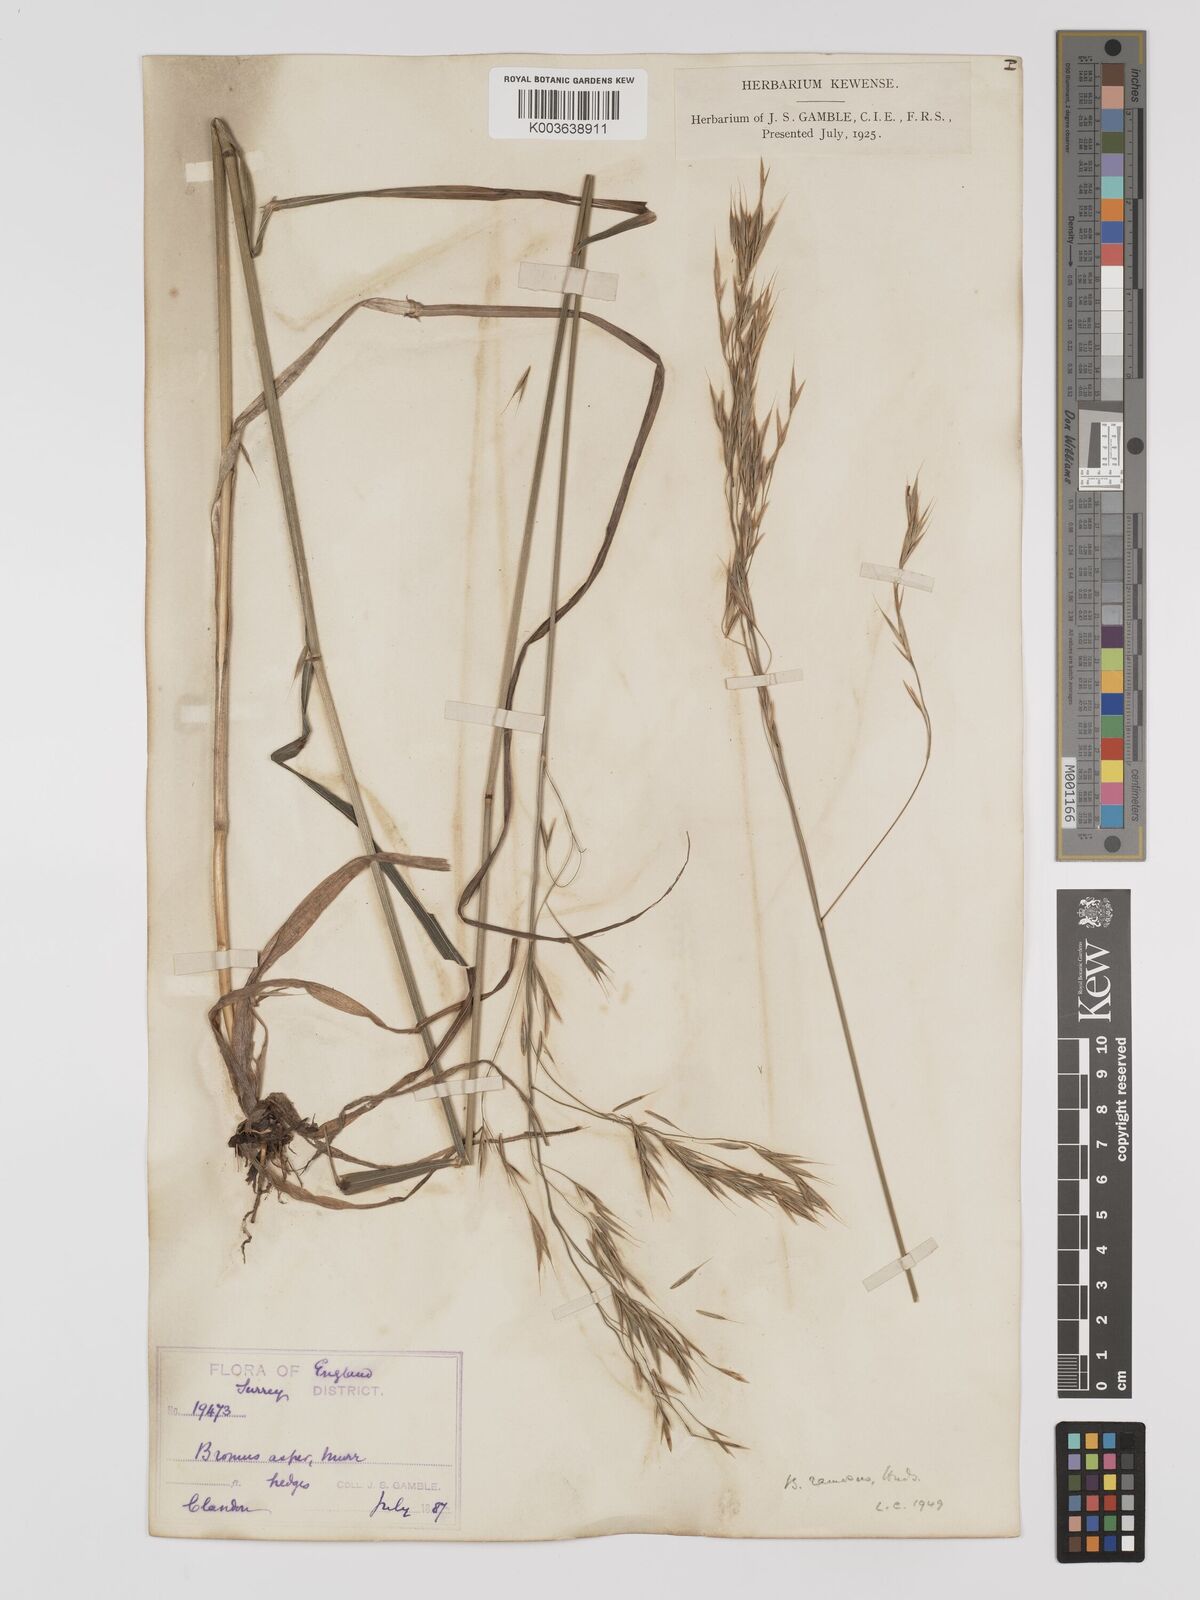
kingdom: Plantae
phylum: Tracheophyta
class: Liliopsida
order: Poales
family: Poaceae
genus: Bromus
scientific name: Bromus ramosus
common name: Hairy brome
